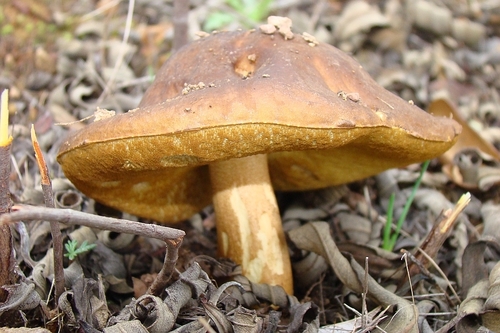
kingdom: Fungi
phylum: Basidiomycota
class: Agaricomycetes
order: Boletales
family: Boletaceae
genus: Leccinellum
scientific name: Leccinellum corsicum
